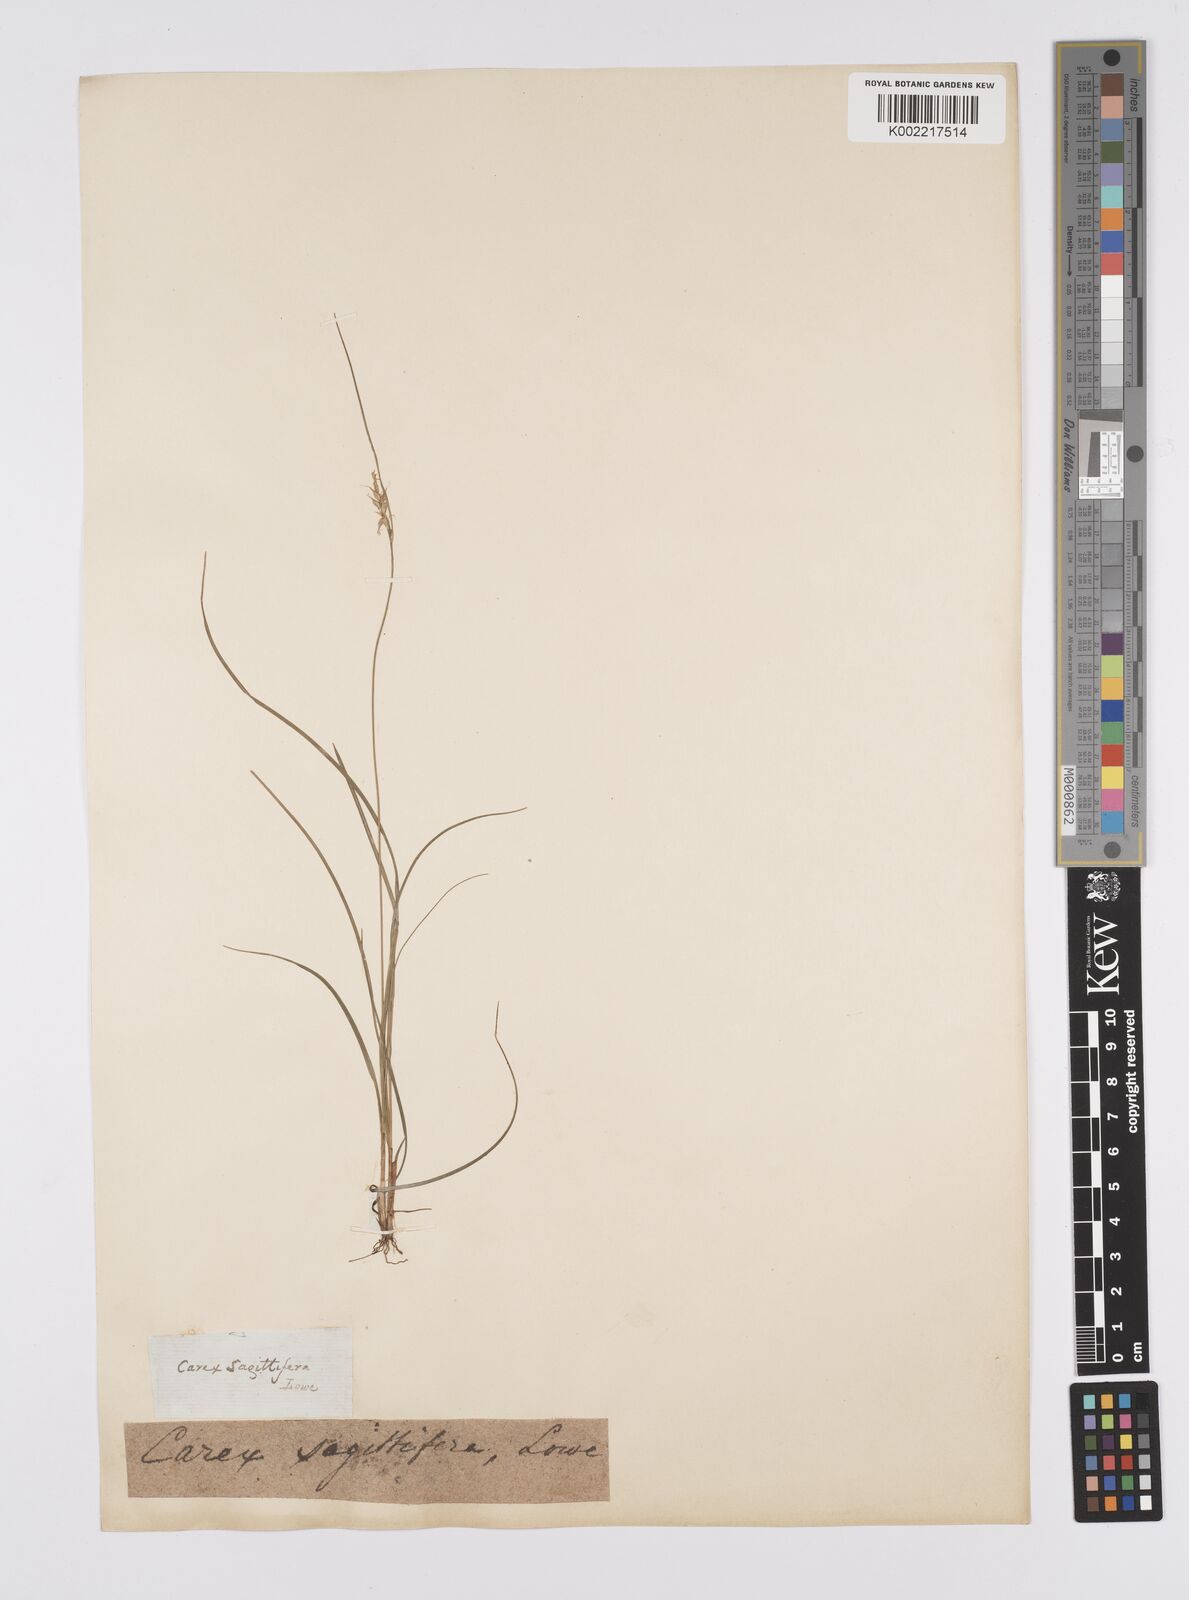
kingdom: Plantae
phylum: Tracheophyta
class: Liliopsida
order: Poales
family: Cyperaceae
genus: Carex
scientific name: Carex peregrina
